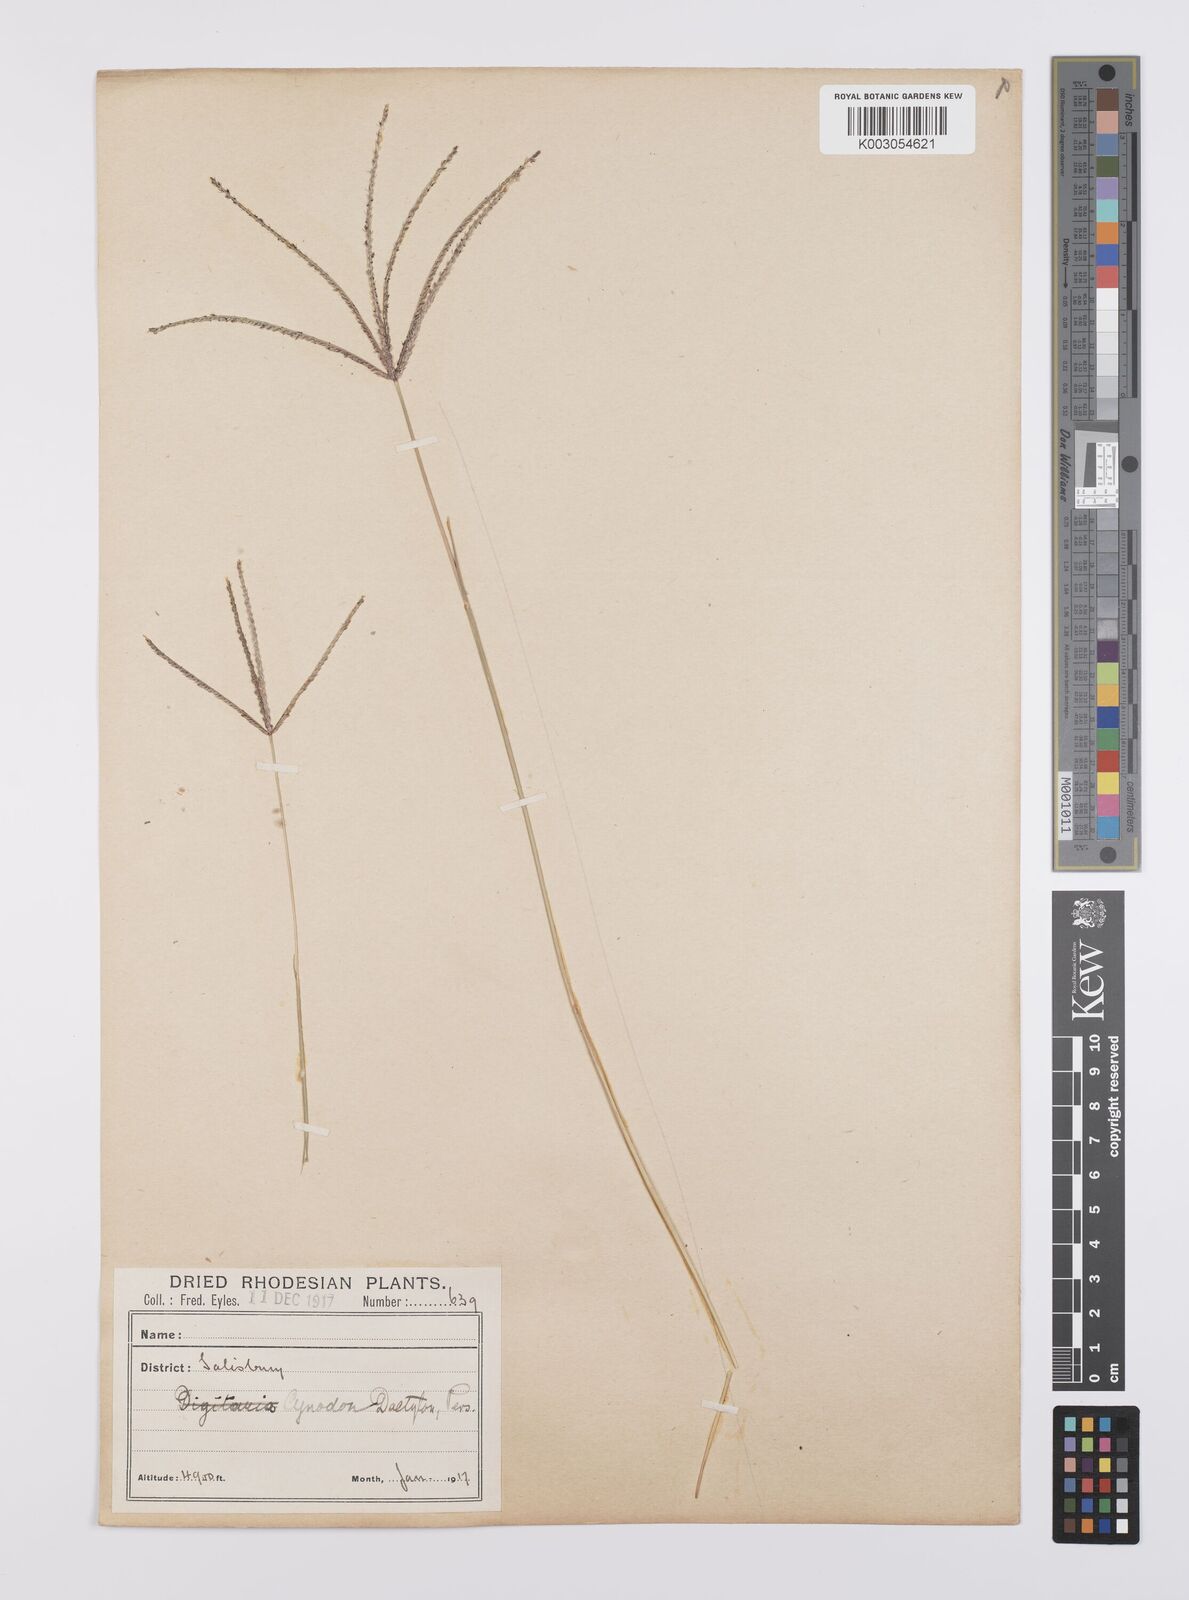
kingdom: Plantae
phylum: Tracheophyta
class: Liliopsida
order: Poales
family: Poaceae
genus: Cynodon
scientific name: Cynodon dactylon
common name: Bermuda grass
